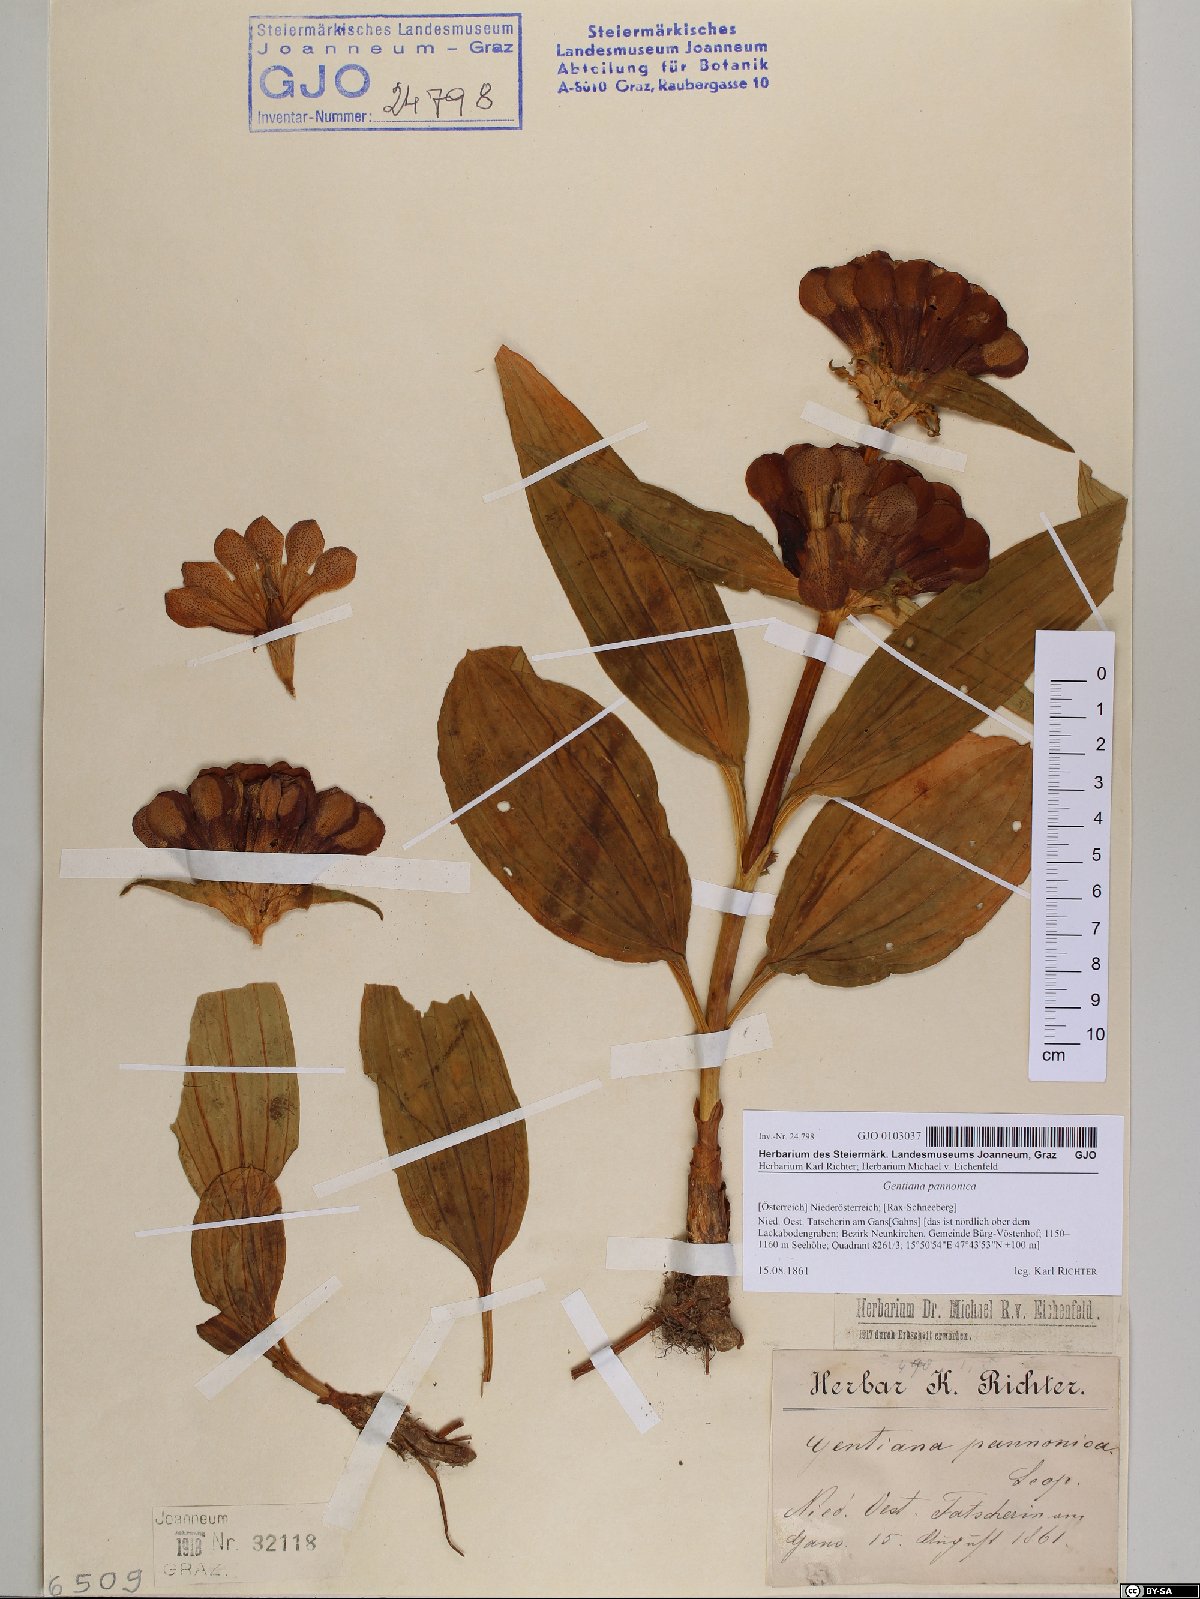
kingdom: Plantae
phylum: Tracheophyta
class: Magnoliopsida
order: Gentianales
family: Gentianaceae
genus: Gentiana
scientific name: Gentiana pannonica
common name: Hungarian gentian
